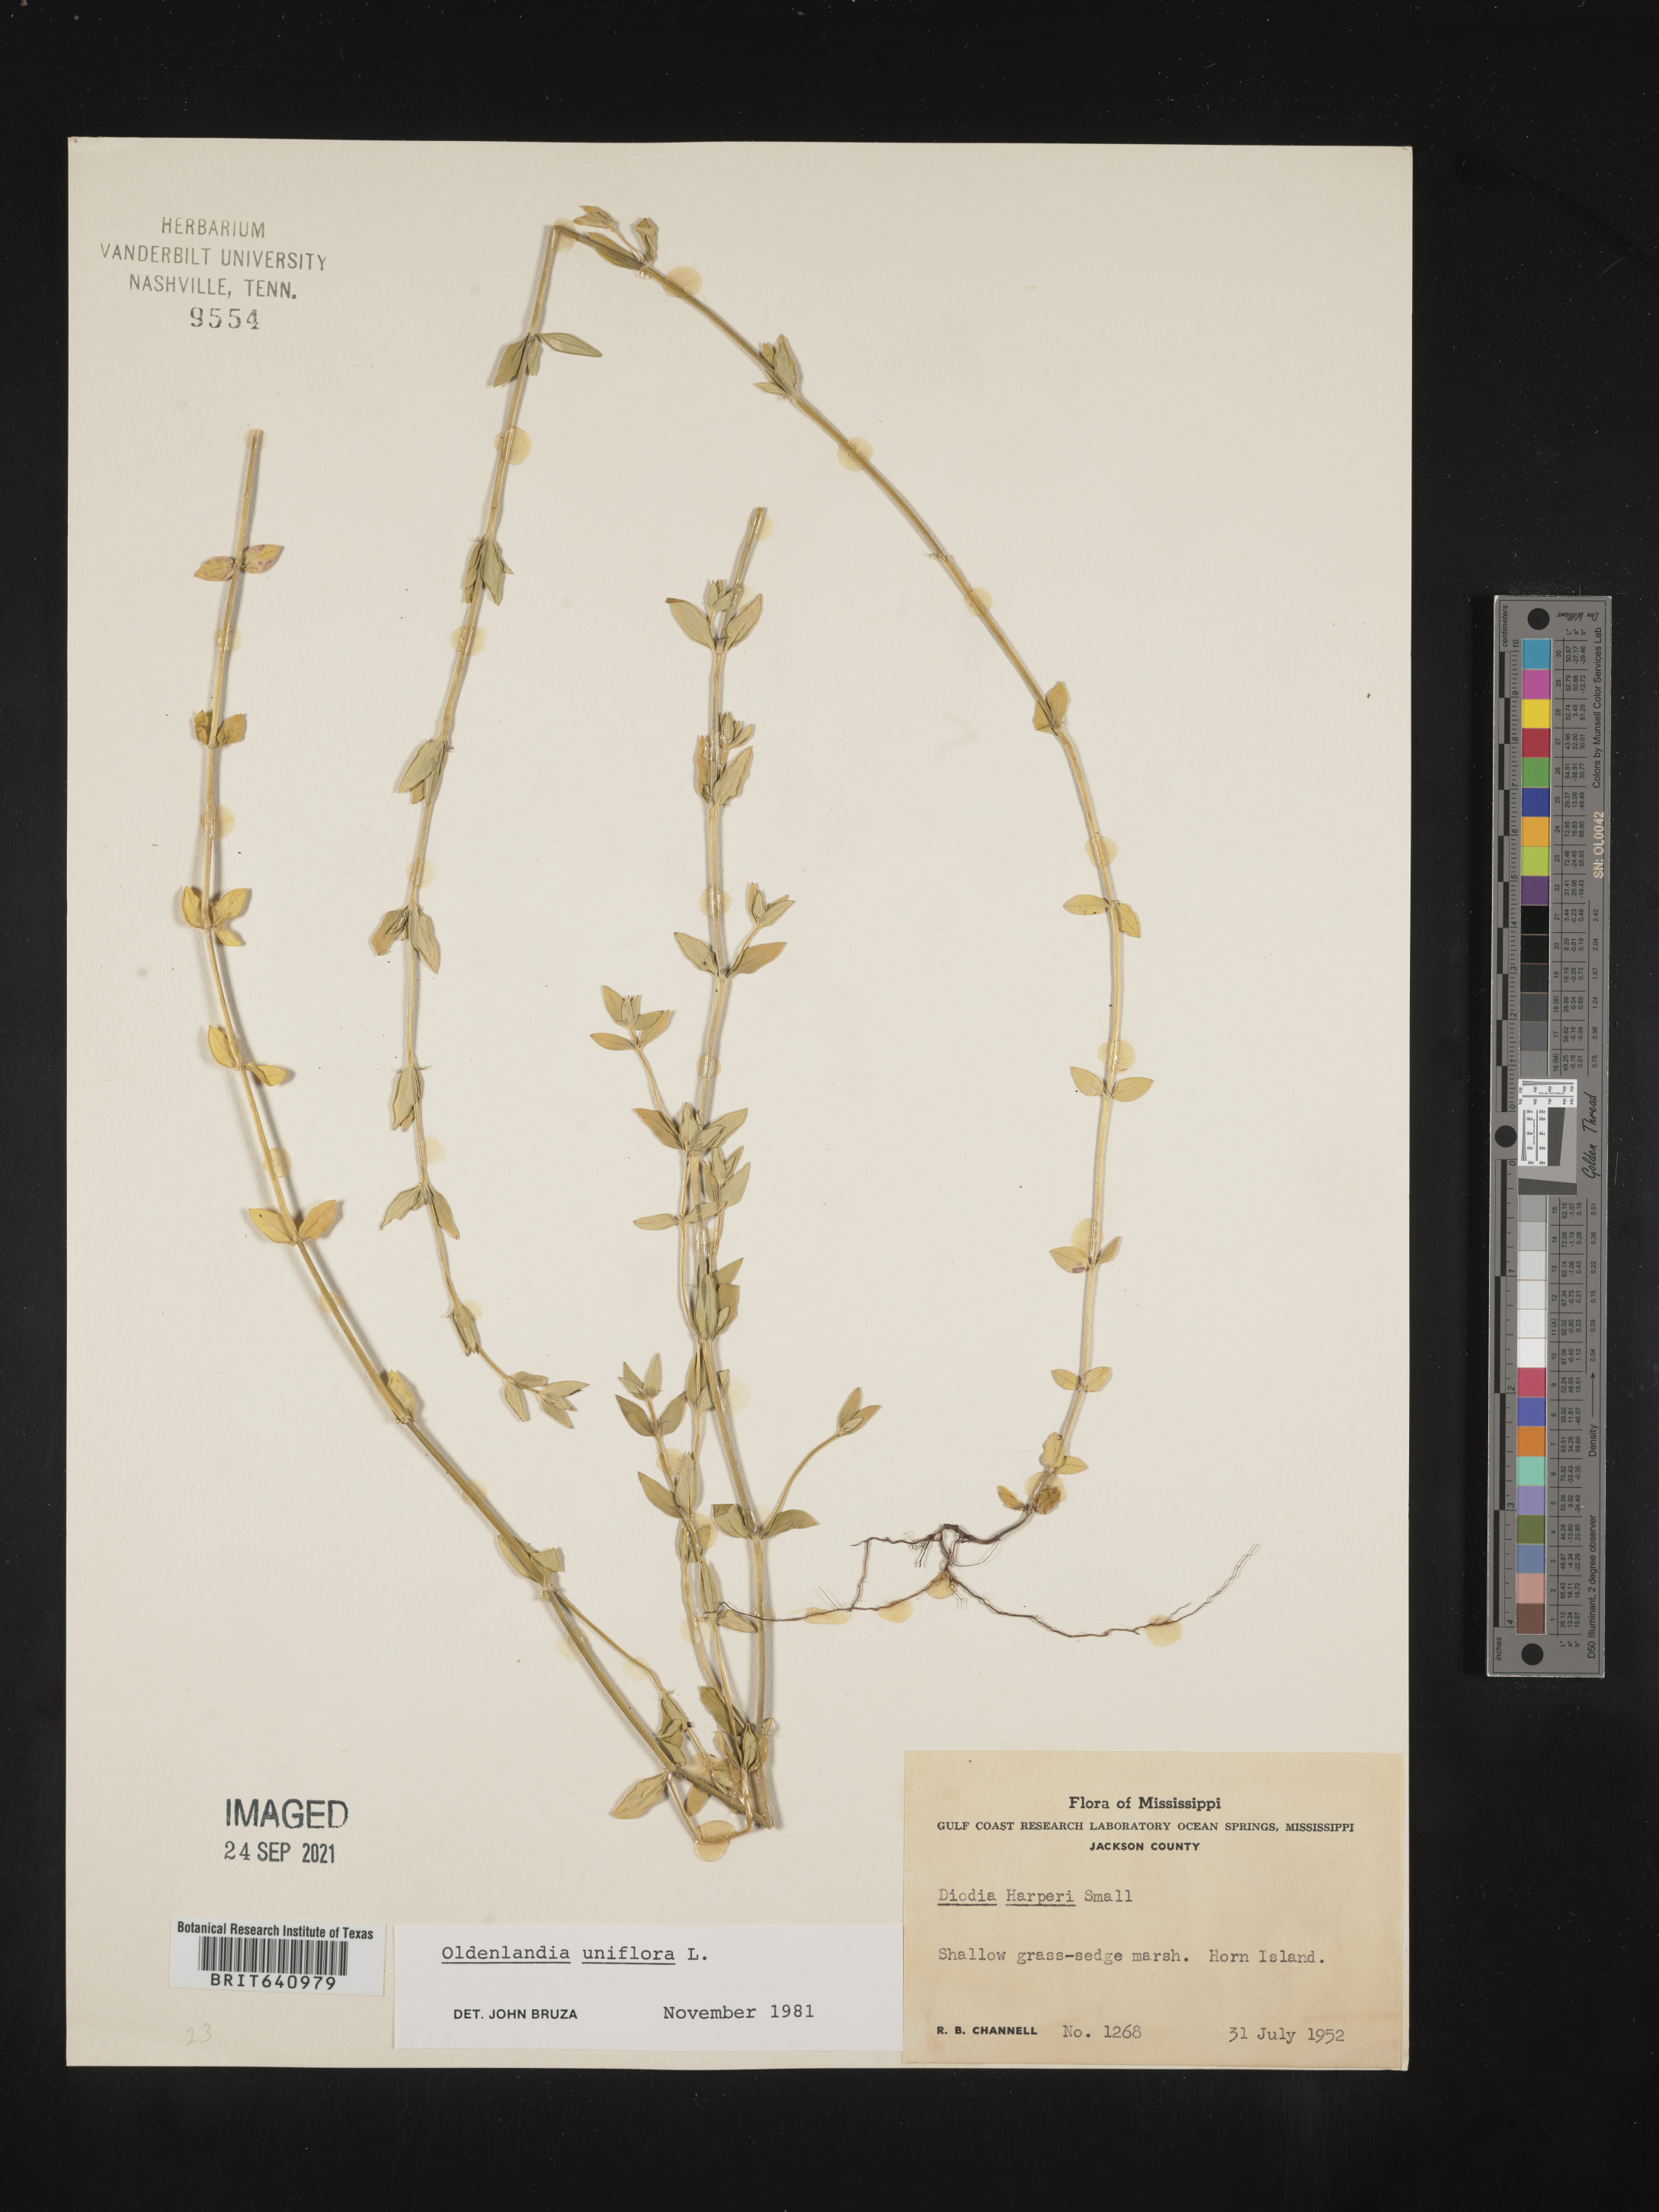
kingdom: Plantae
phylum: Tracheophyta
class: Magnoliopsida
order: Gentianales
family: Rubiaceae
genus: Edrastima
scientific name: Edrastima uniflora
